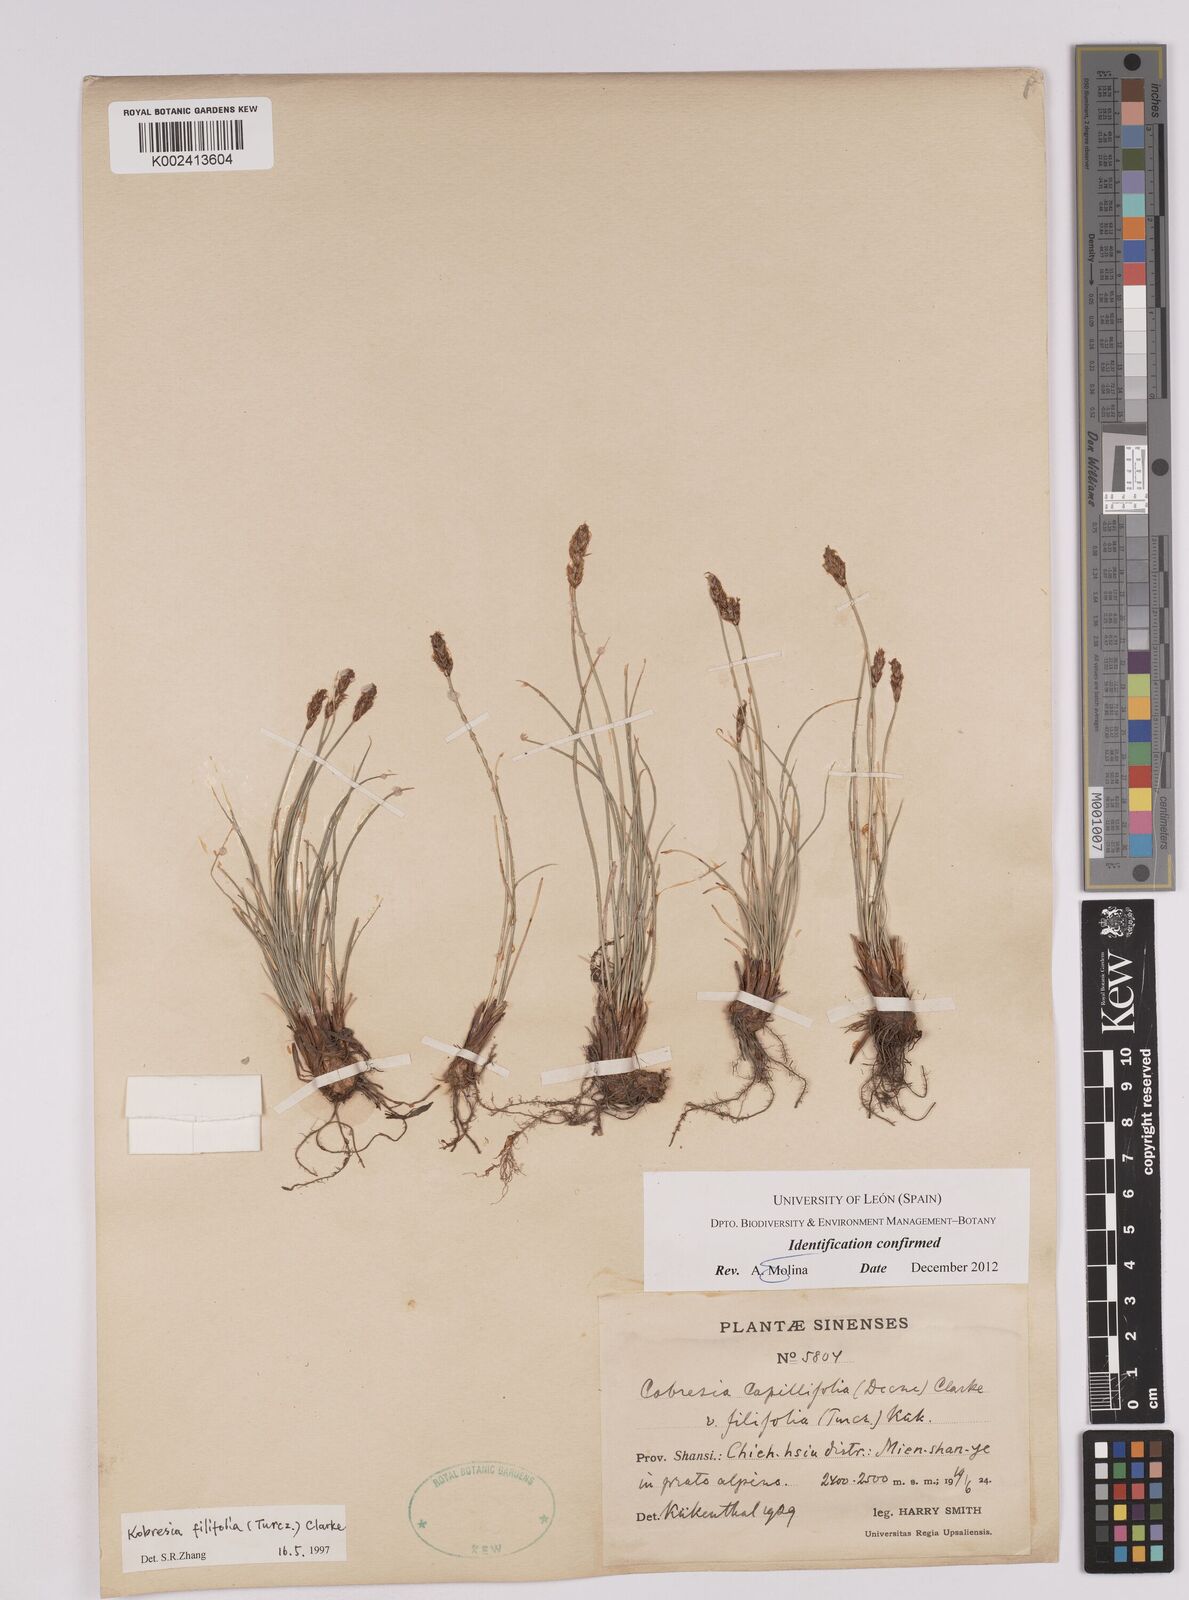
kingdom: Plantae
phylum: Tracheophyta
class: Liliopsida
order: Poales
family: Cyperaceae
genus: Carex
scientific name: Carex macroprophylla
